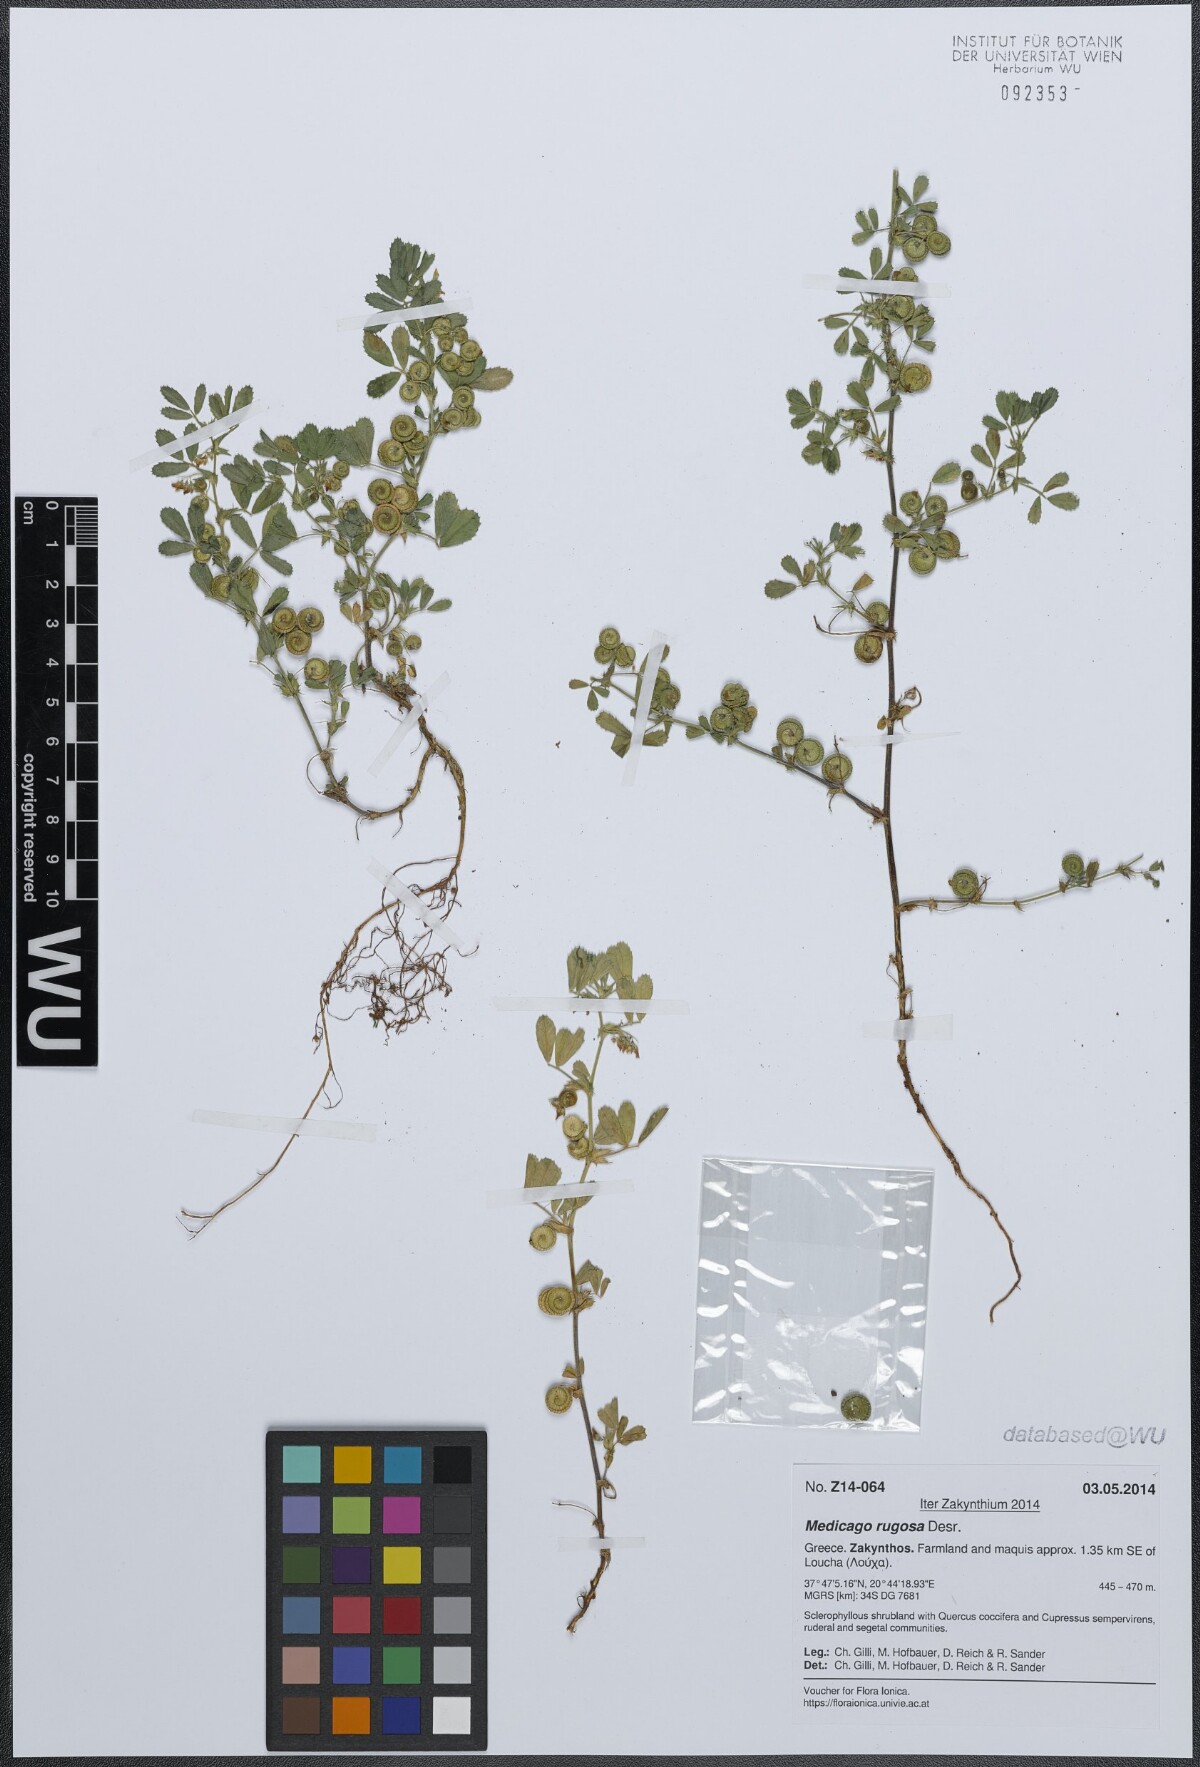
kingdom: Plantae
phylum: Tracheophyta
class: Magnoliopsida
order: Fabales
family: Fabaceae
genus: Medicago
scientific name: Medicago rugosa
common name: Gama medic
